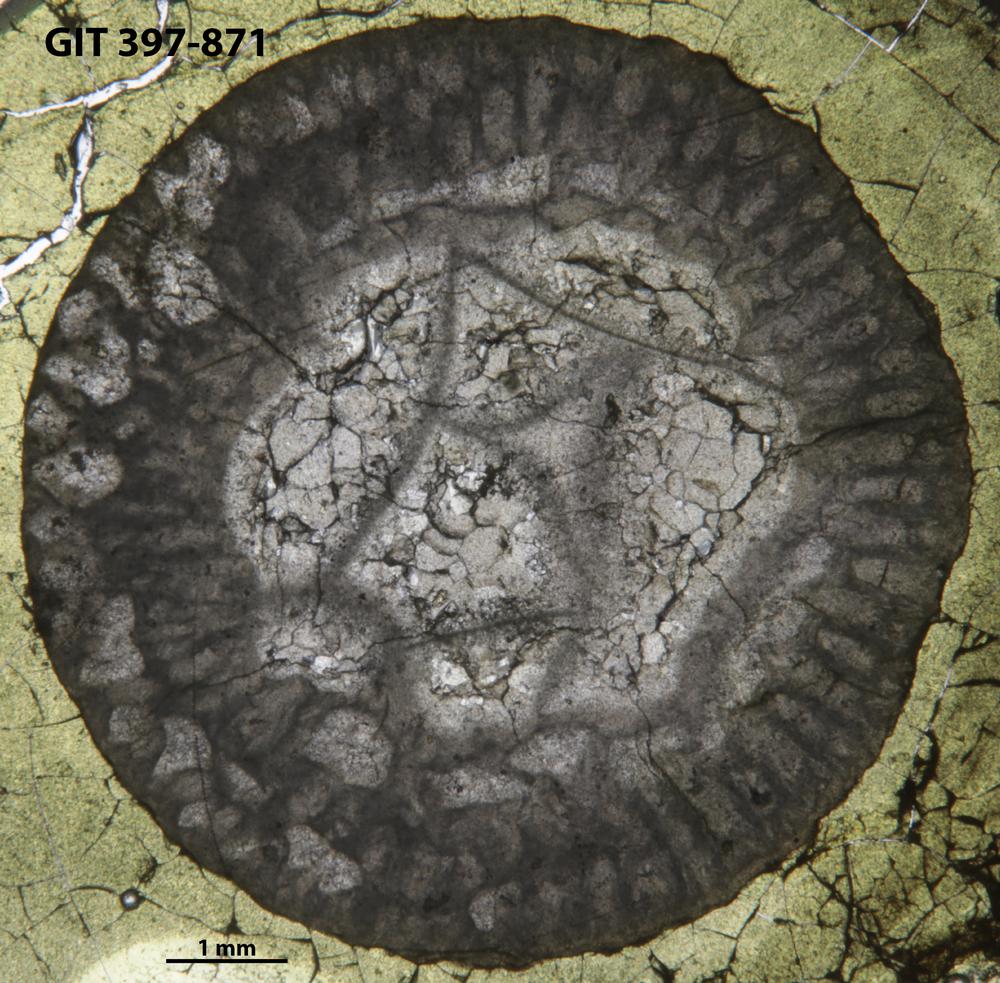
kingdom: Animalia
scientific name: Animalia
